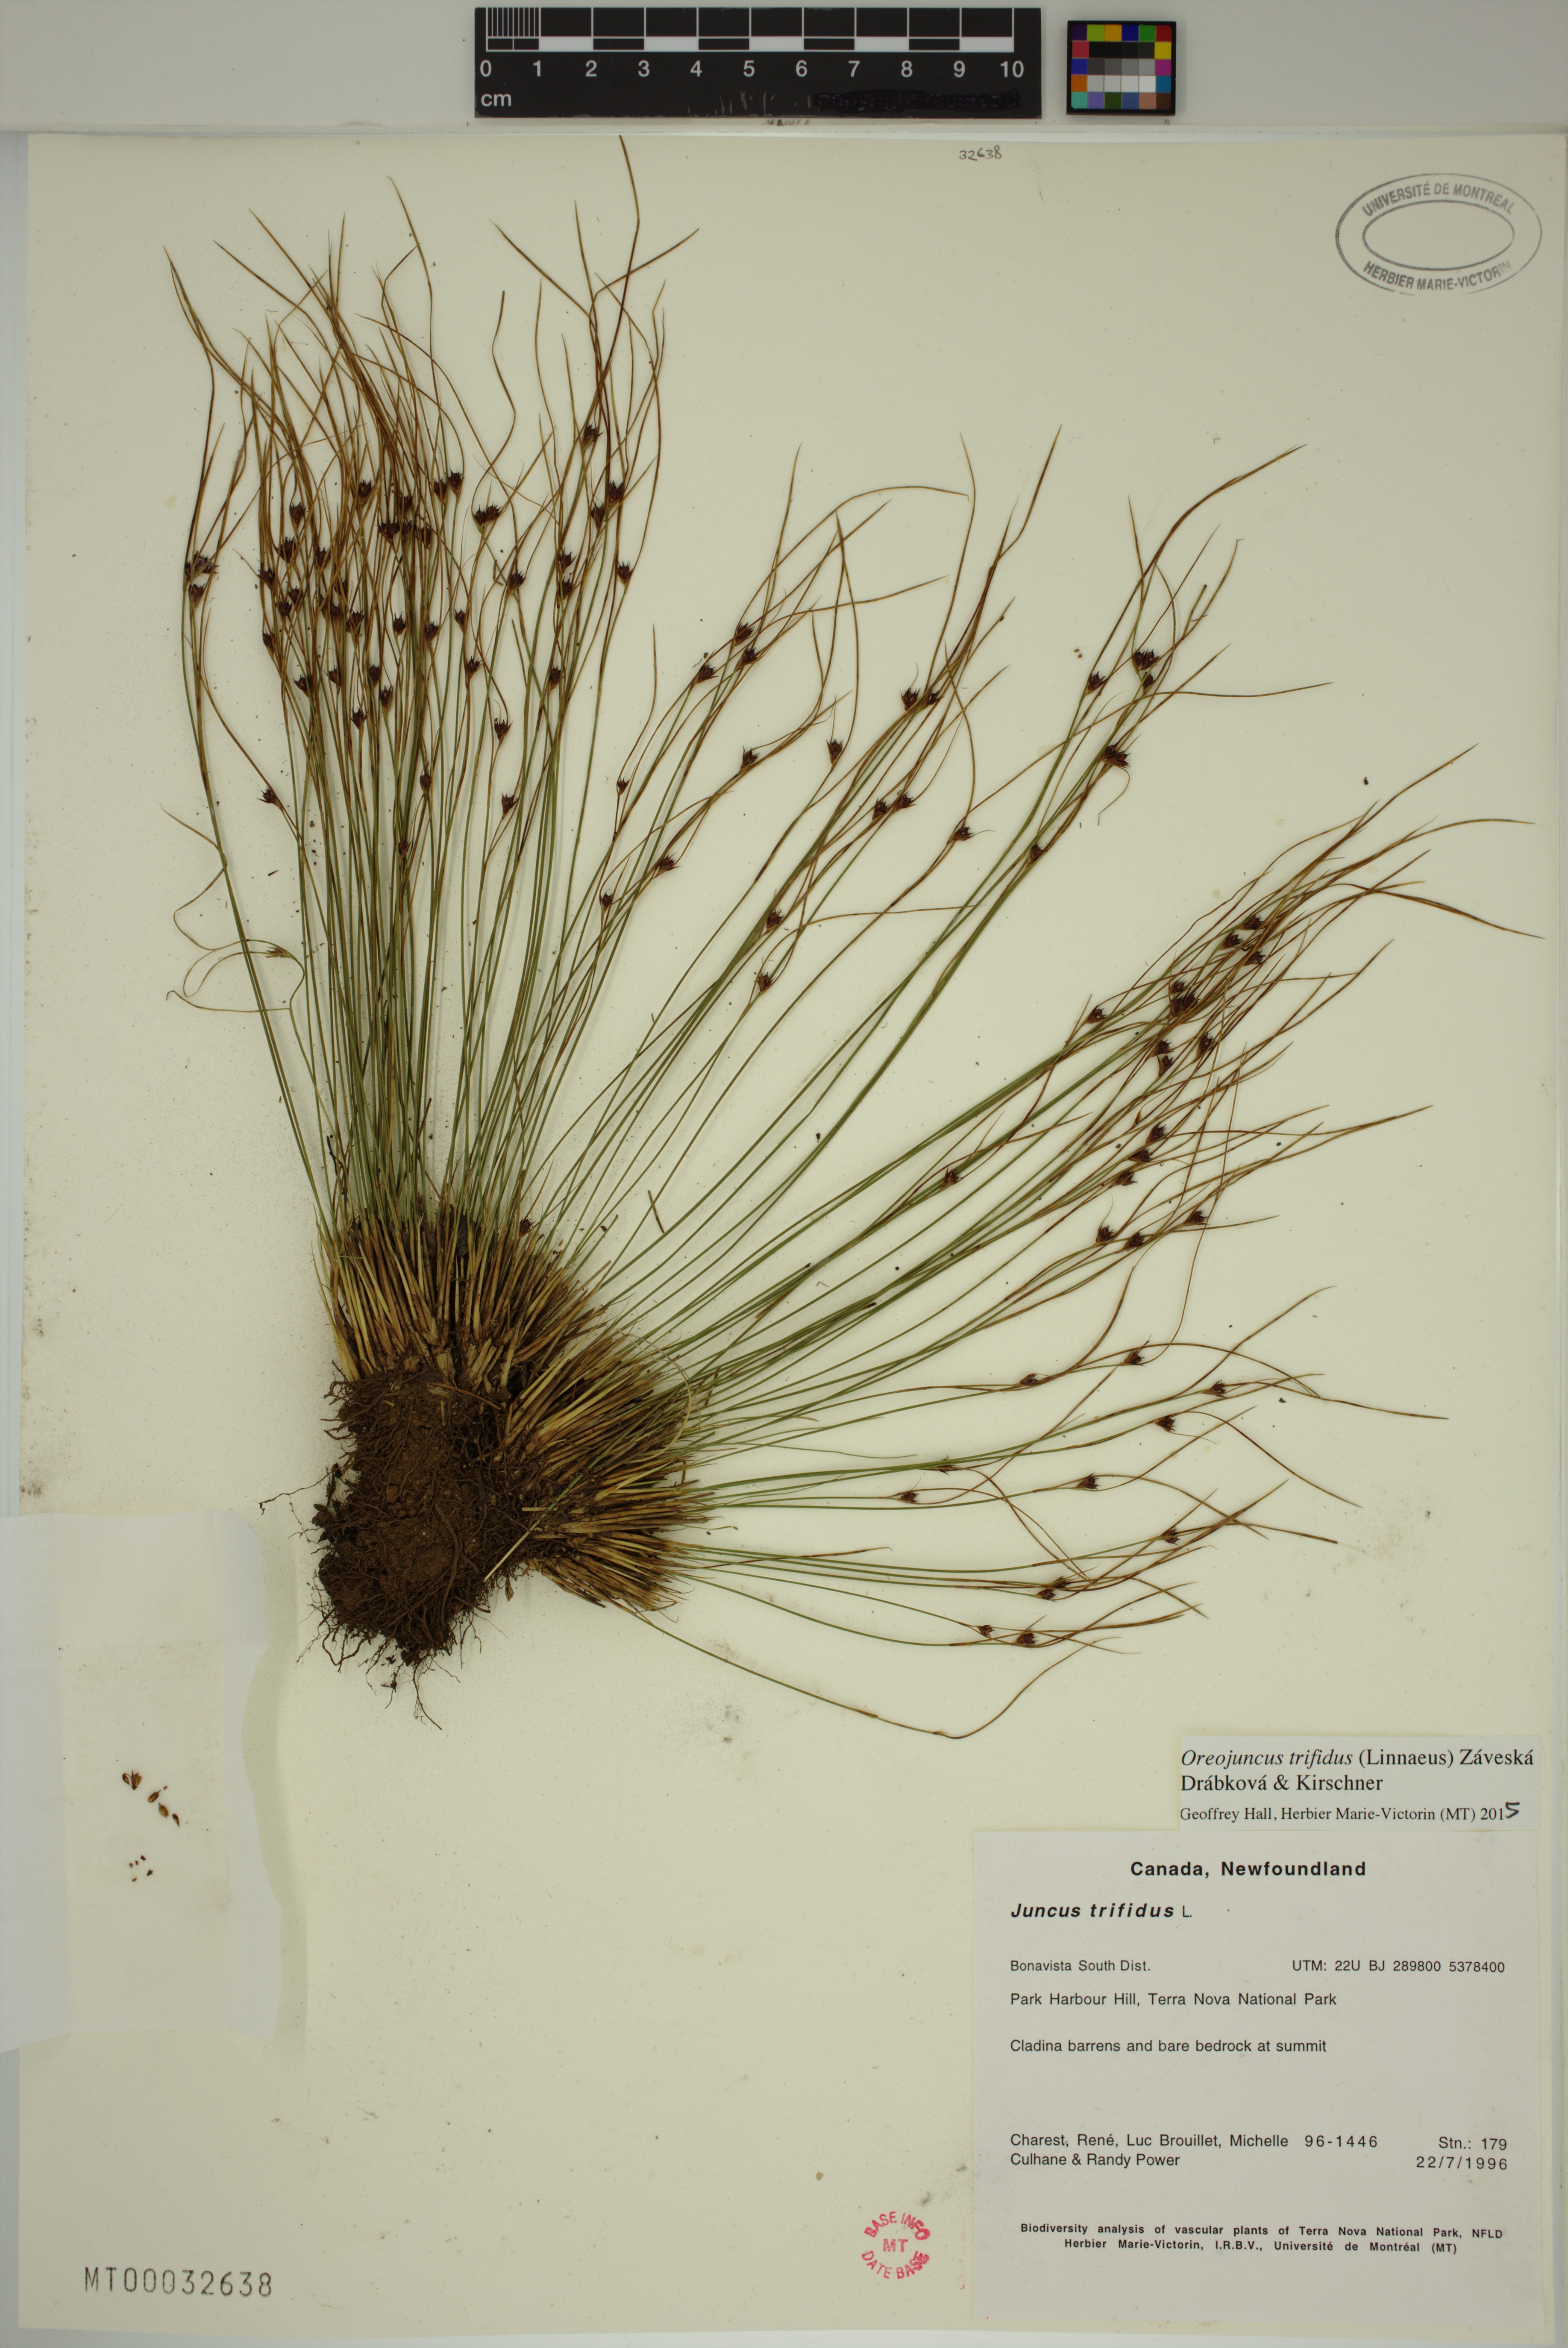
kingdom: Plantae
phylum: Tracheophyta
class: Liliopsida
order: Poales
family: Juncaceae
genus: Oreojuncus
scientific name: Oreojuncus trifidus
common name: Highland rush
